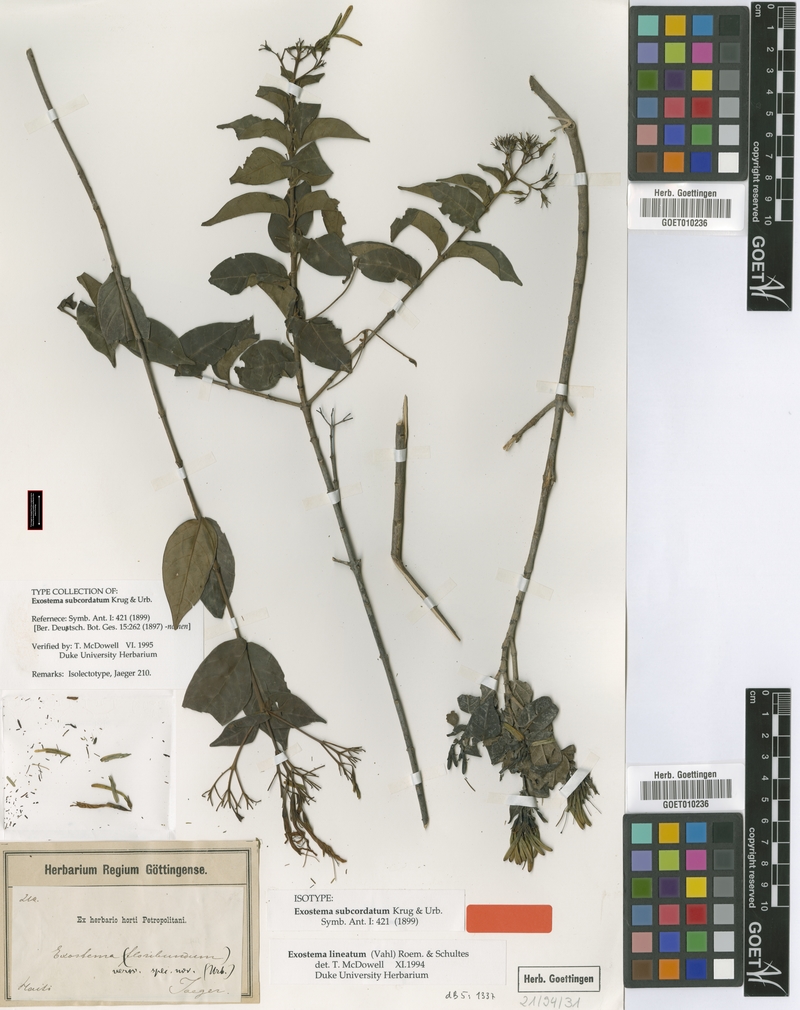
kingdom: Plantae
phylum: Tracheophyta
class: Magnoliopsida
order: Gentianales
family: Rubiaceae
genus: Solenandra
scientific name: Solenandra lineata
